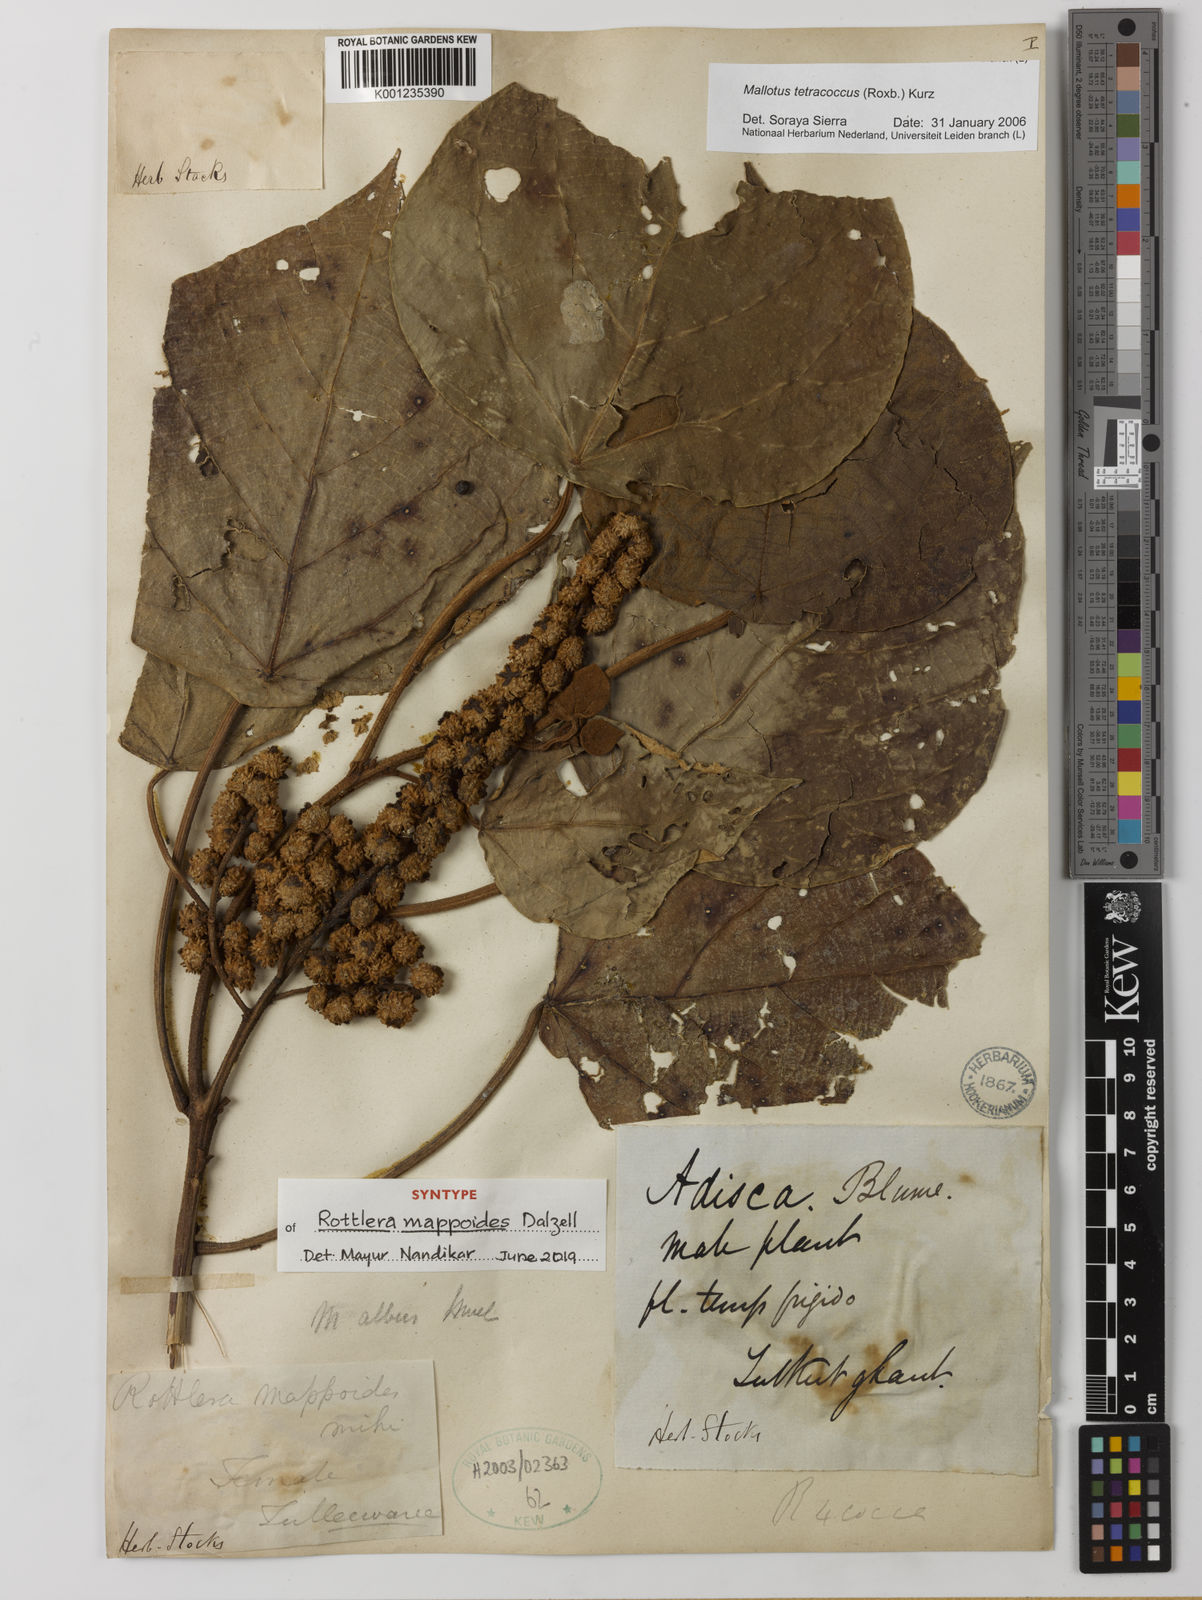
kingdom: Plantae
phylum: Tracheophyta
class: Magnoliopsida
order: Malpighiales
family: Euphorbiaceae
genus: Mallotus
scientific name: Mallotus tetracoccus
